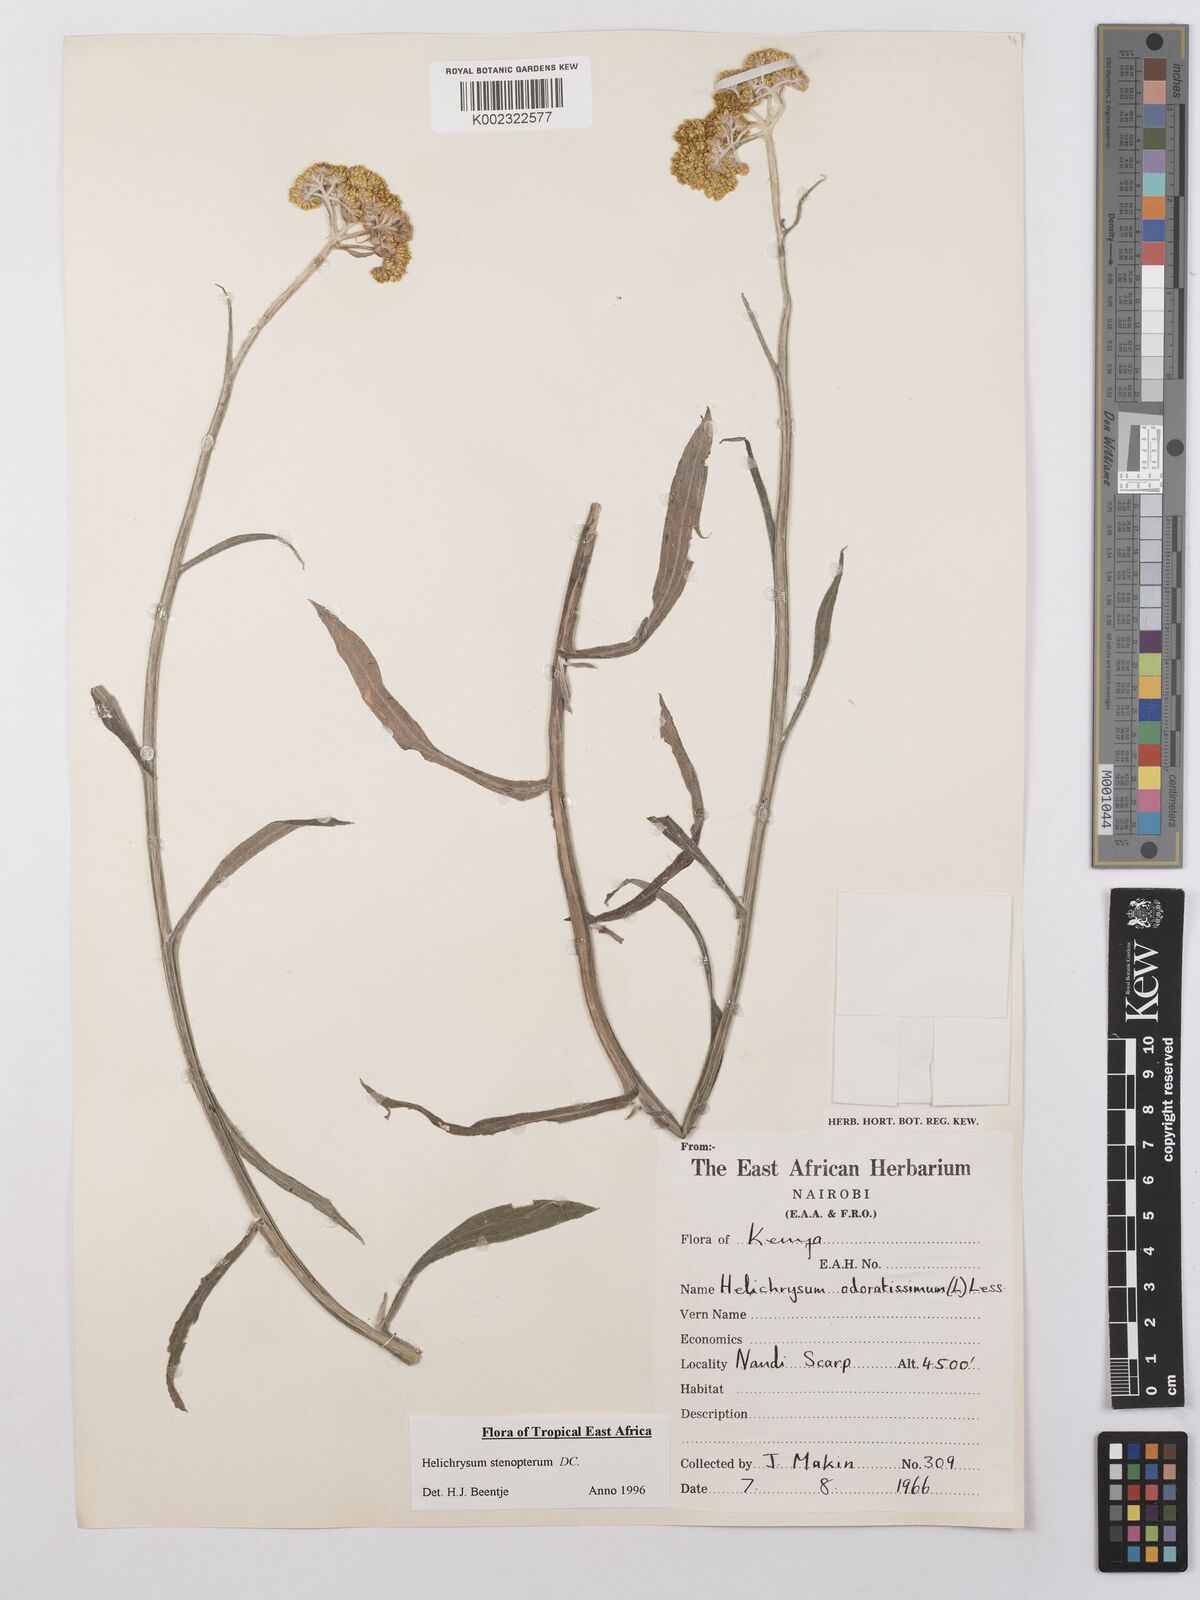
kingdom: Plantae
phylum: Tracheophyta
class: Magnoliopsida
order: Asterales
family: Asteraceae
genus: Helichrysum
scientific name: Helichrysum stenopterum
